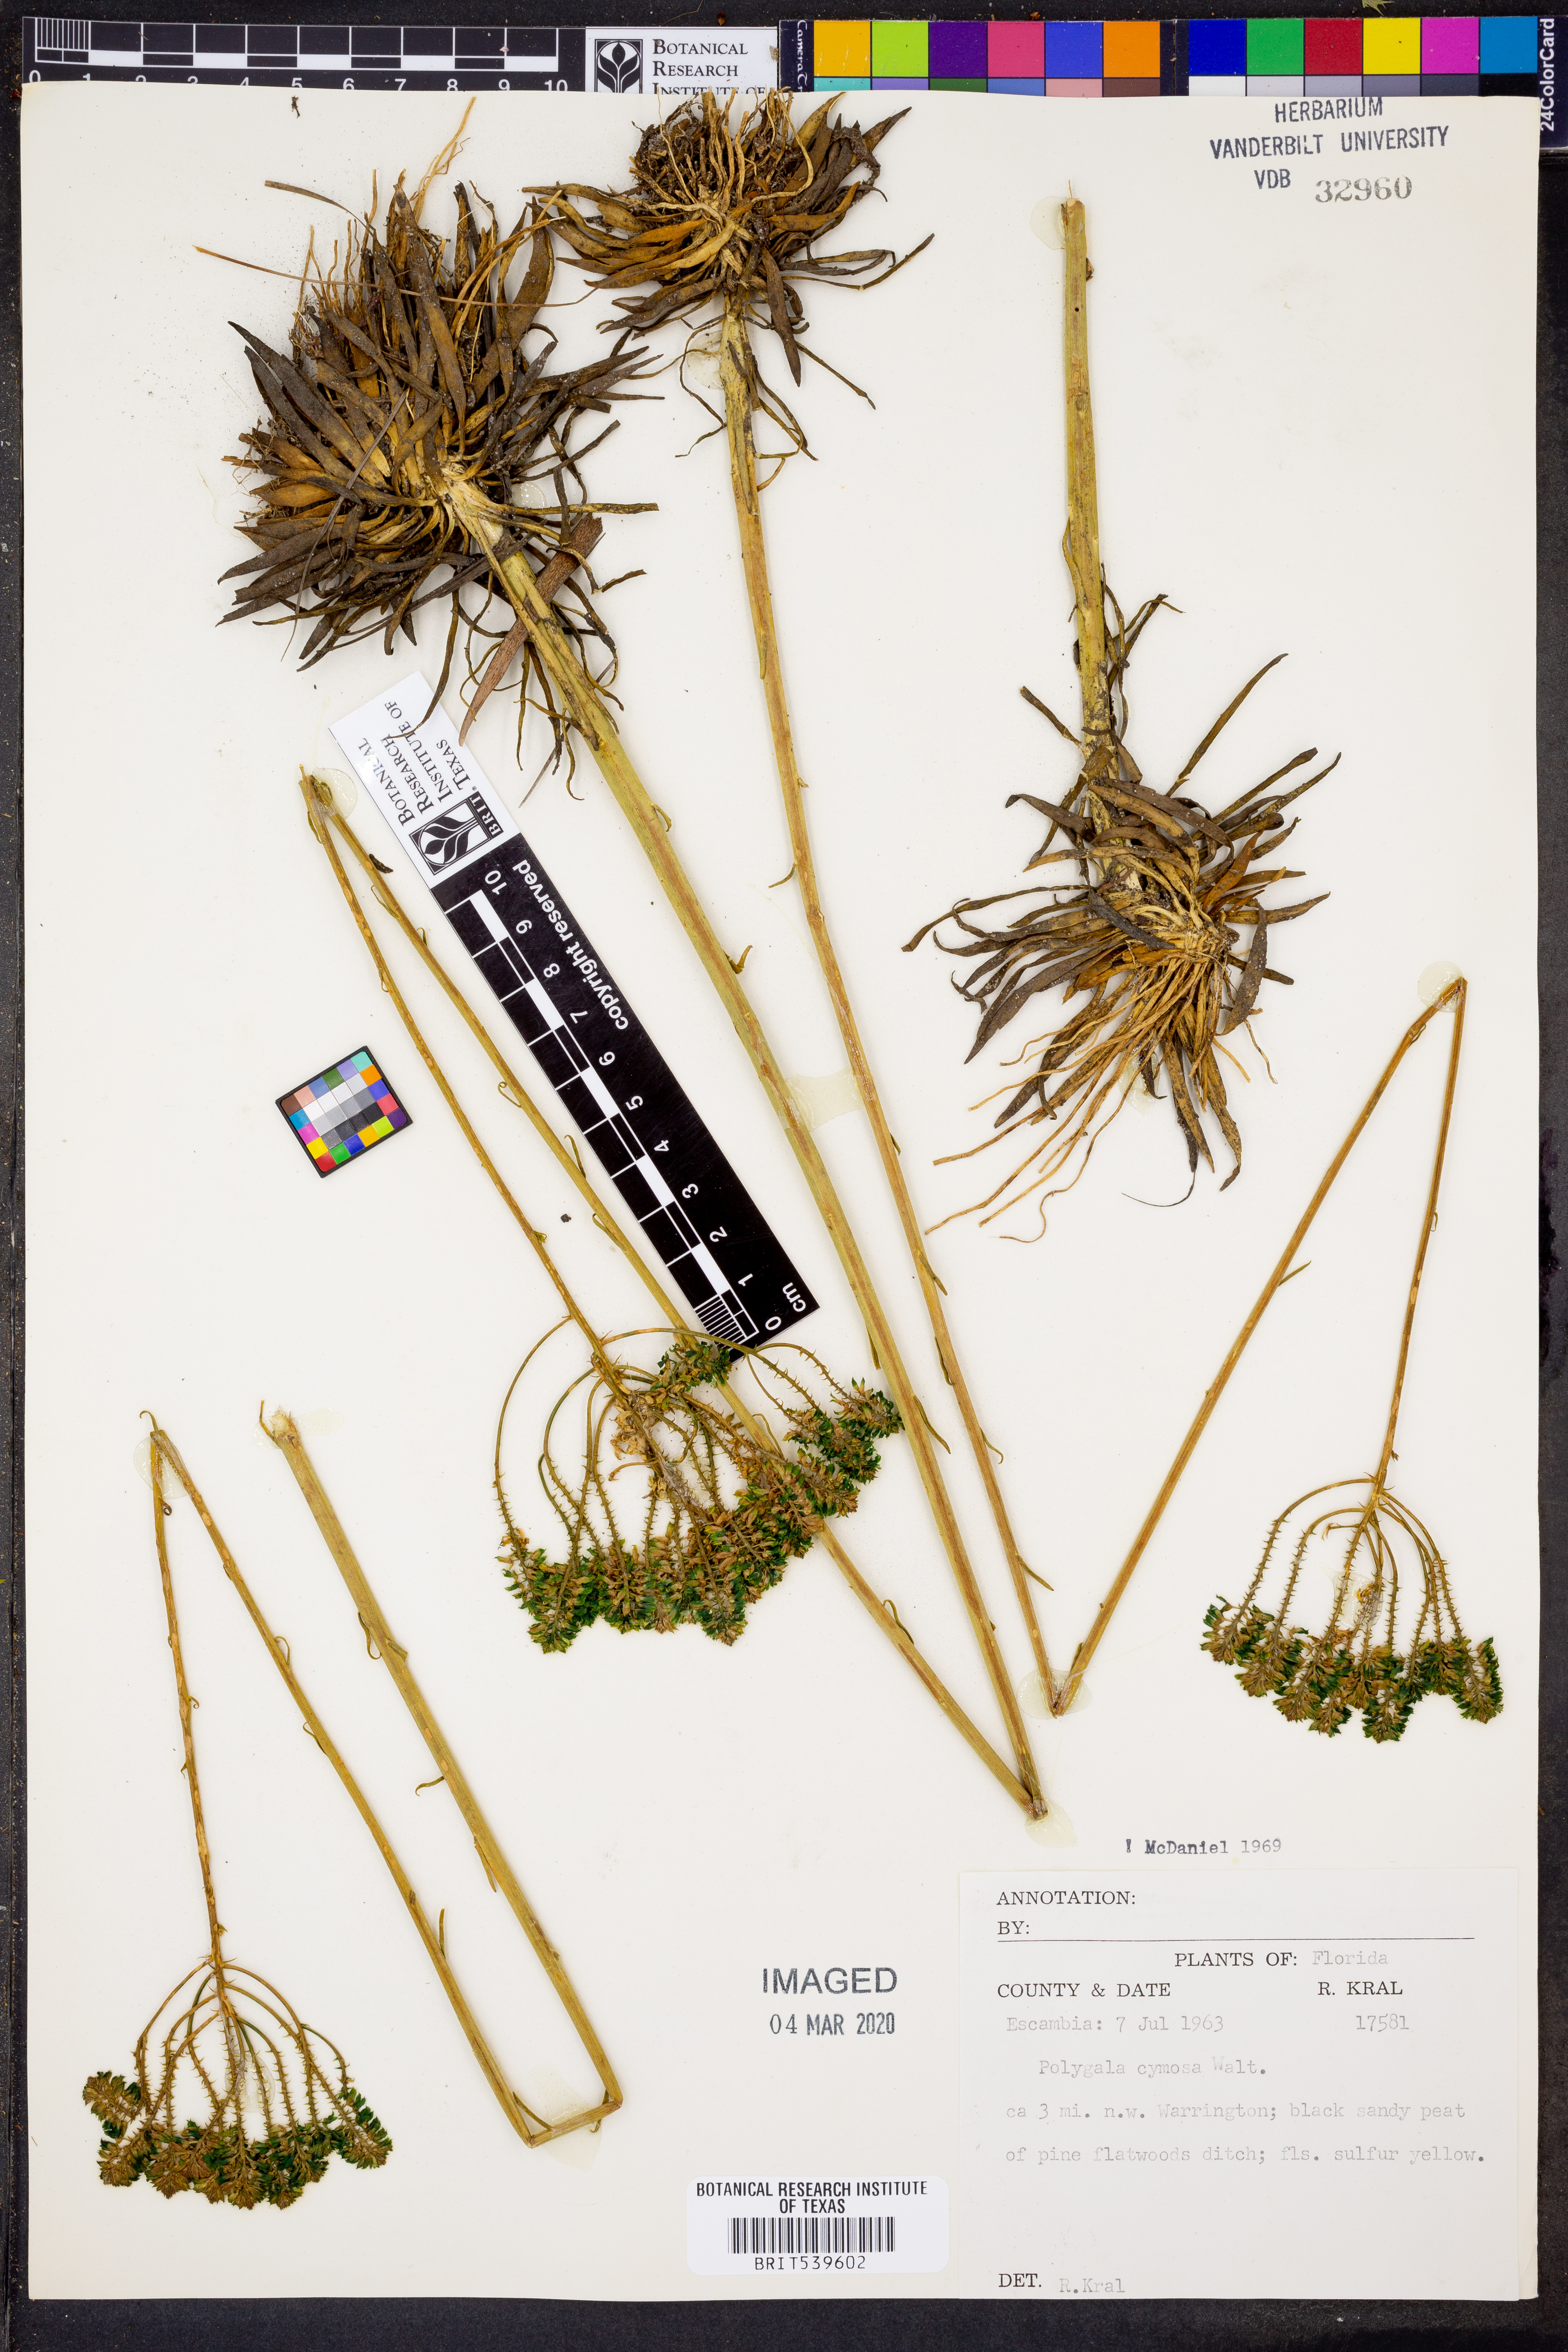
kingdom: Plantae
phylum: Tracheophyta
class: Magnoliopsida
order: Fabales
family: Polygalaceae
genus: Polygala
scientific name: Polygala cymosa
